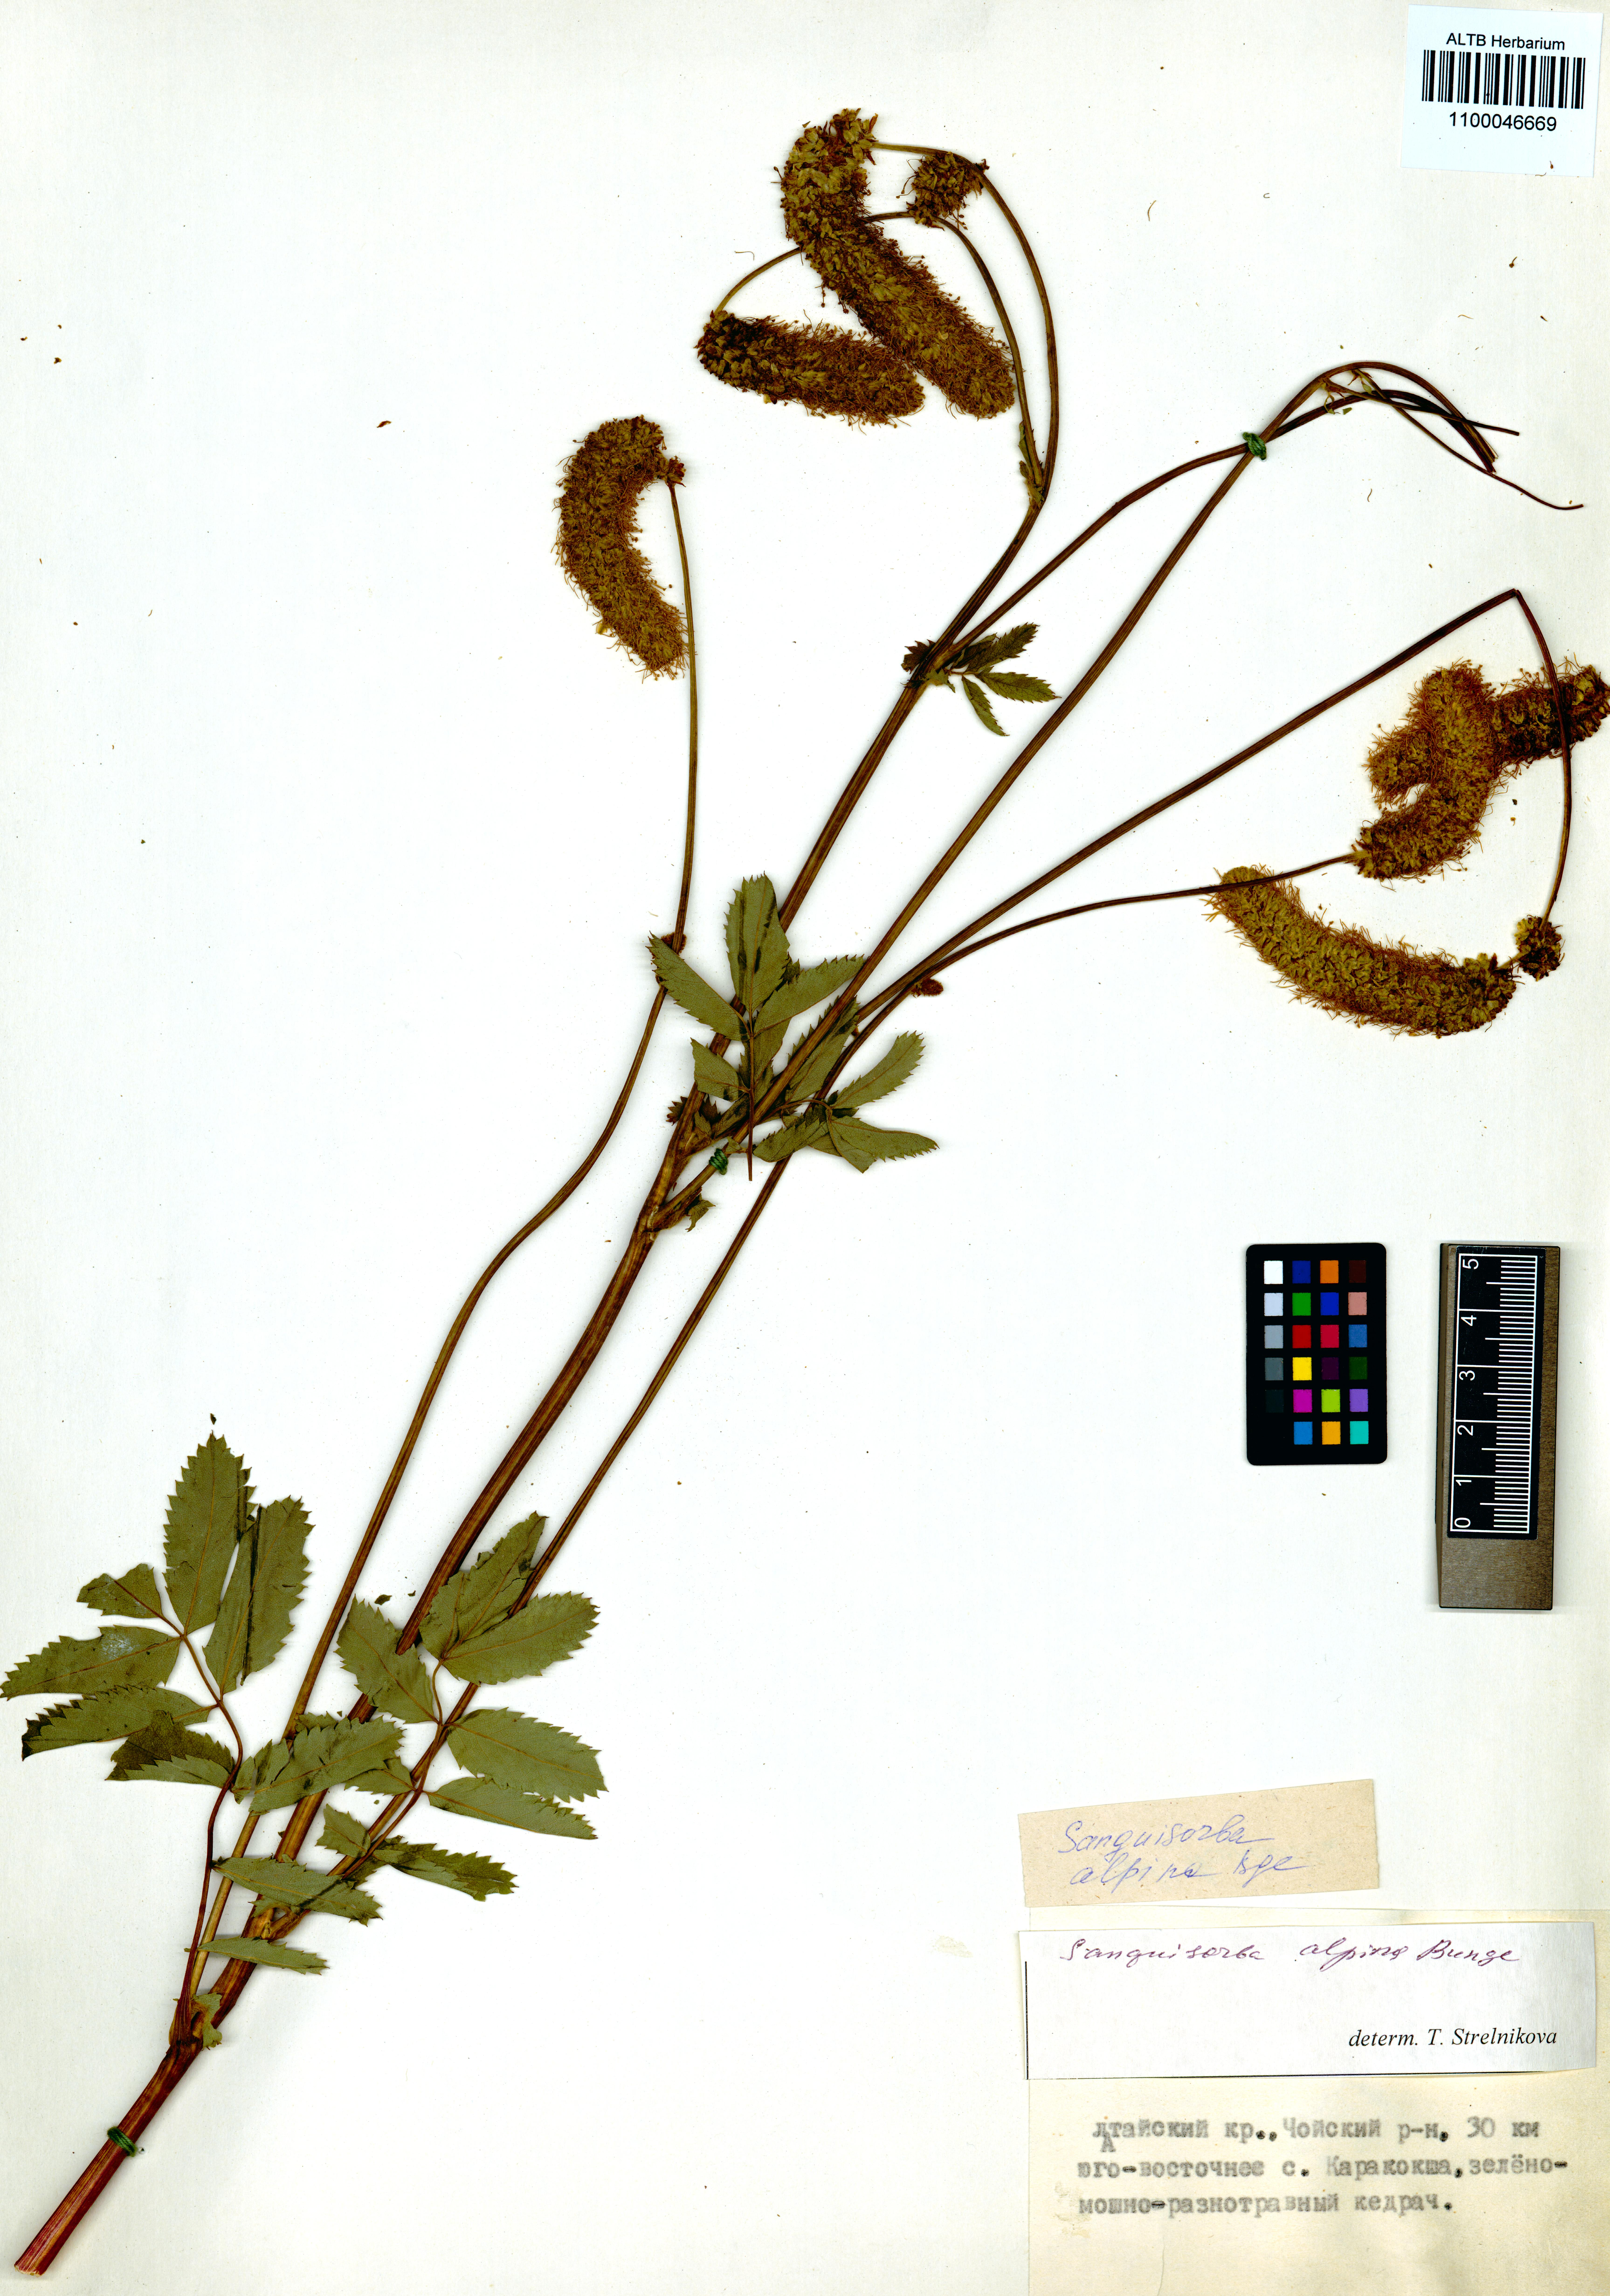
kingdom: Plantae
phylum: Tracheophyta
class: Magnoliopsida
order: Rosales
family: Rosaceae
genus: Sanguisorba
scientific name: Sanguisorba alpina
